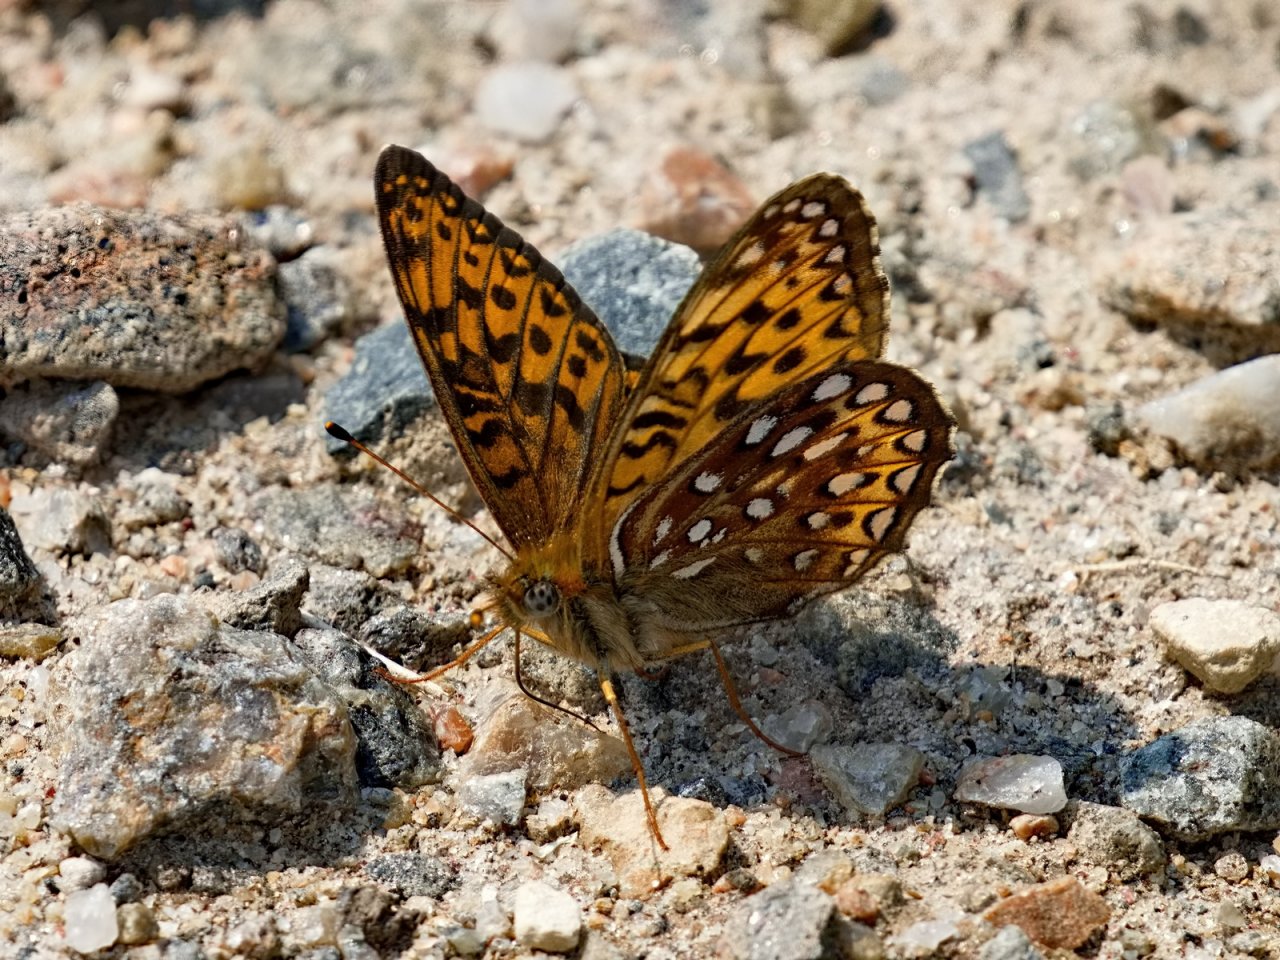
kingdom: Animalia
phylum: Arthropoda
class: Insecta
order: Lepidoptera
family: Nymphalidae
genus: Speyeria
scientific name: Speyeria atlantis
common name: Atlantis Fritillary
